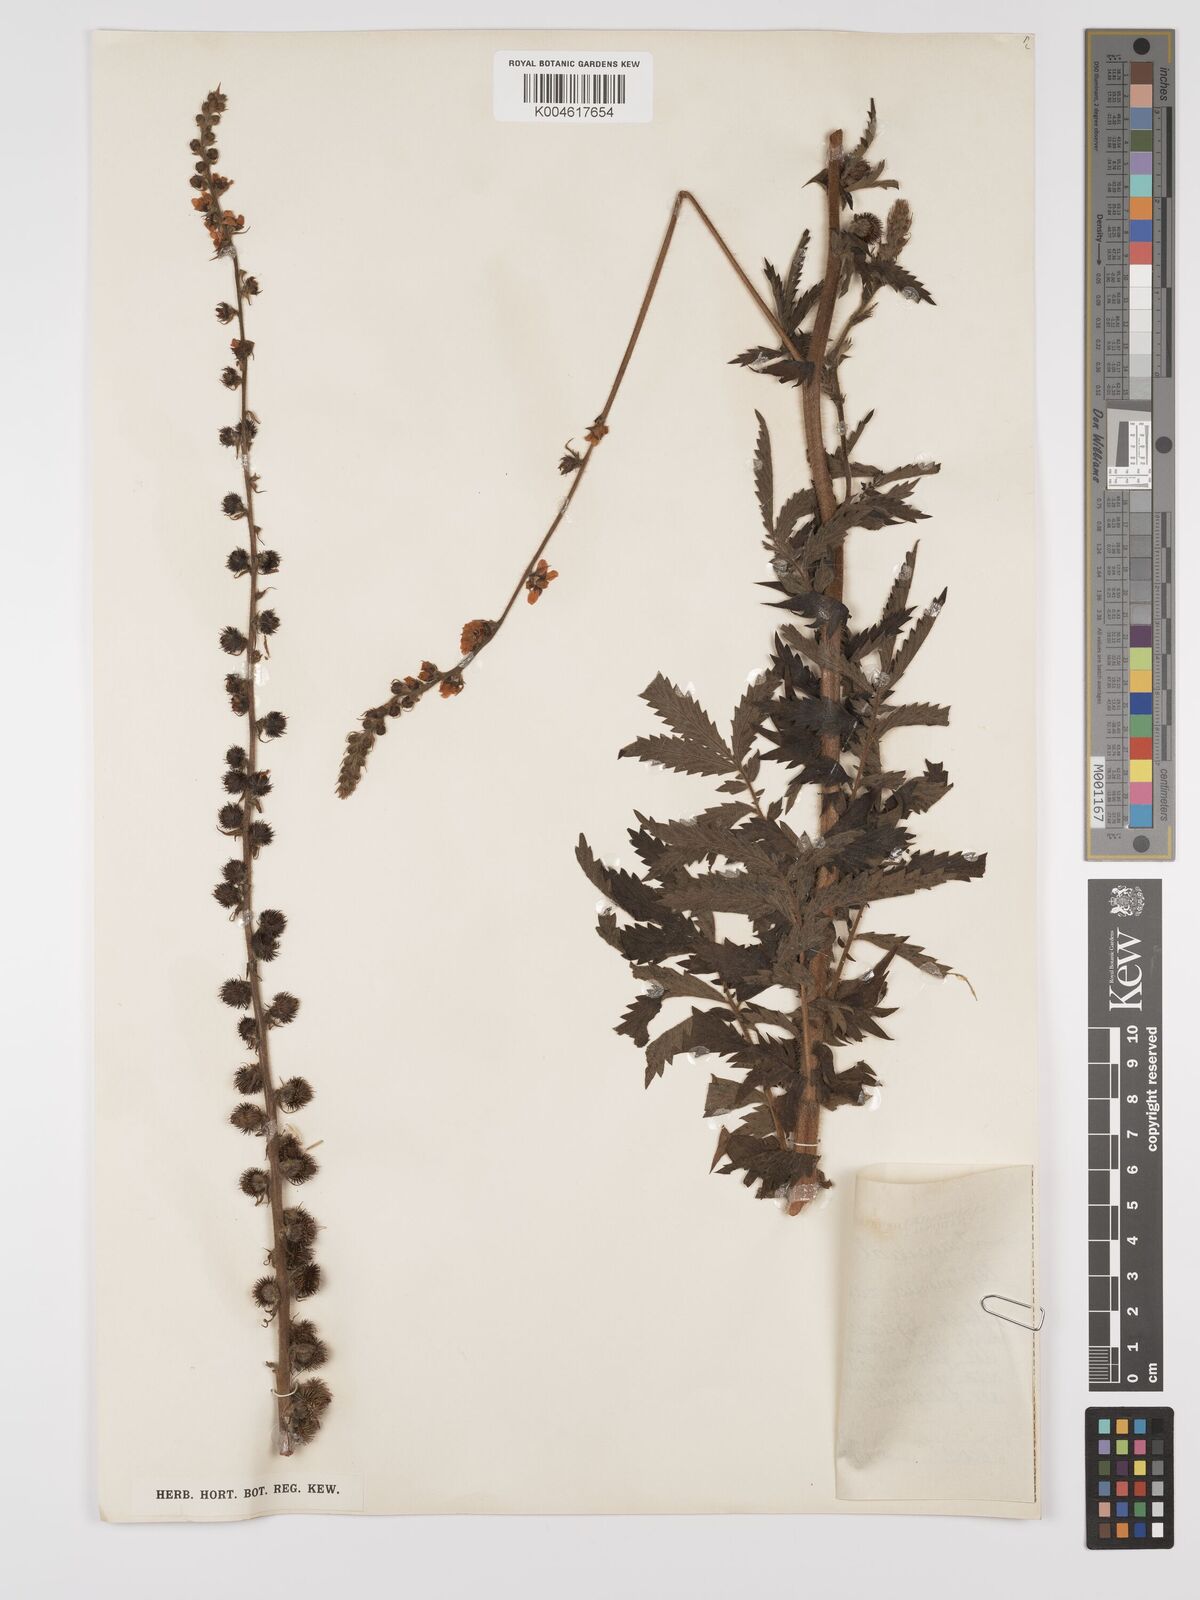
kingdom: Plantae
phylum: Tracheophyta
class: Magnoliopsida
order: Rosales
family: Rosaceae
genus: Agrimonia
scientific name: Agrimonia eupatoria
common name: Agrimony
